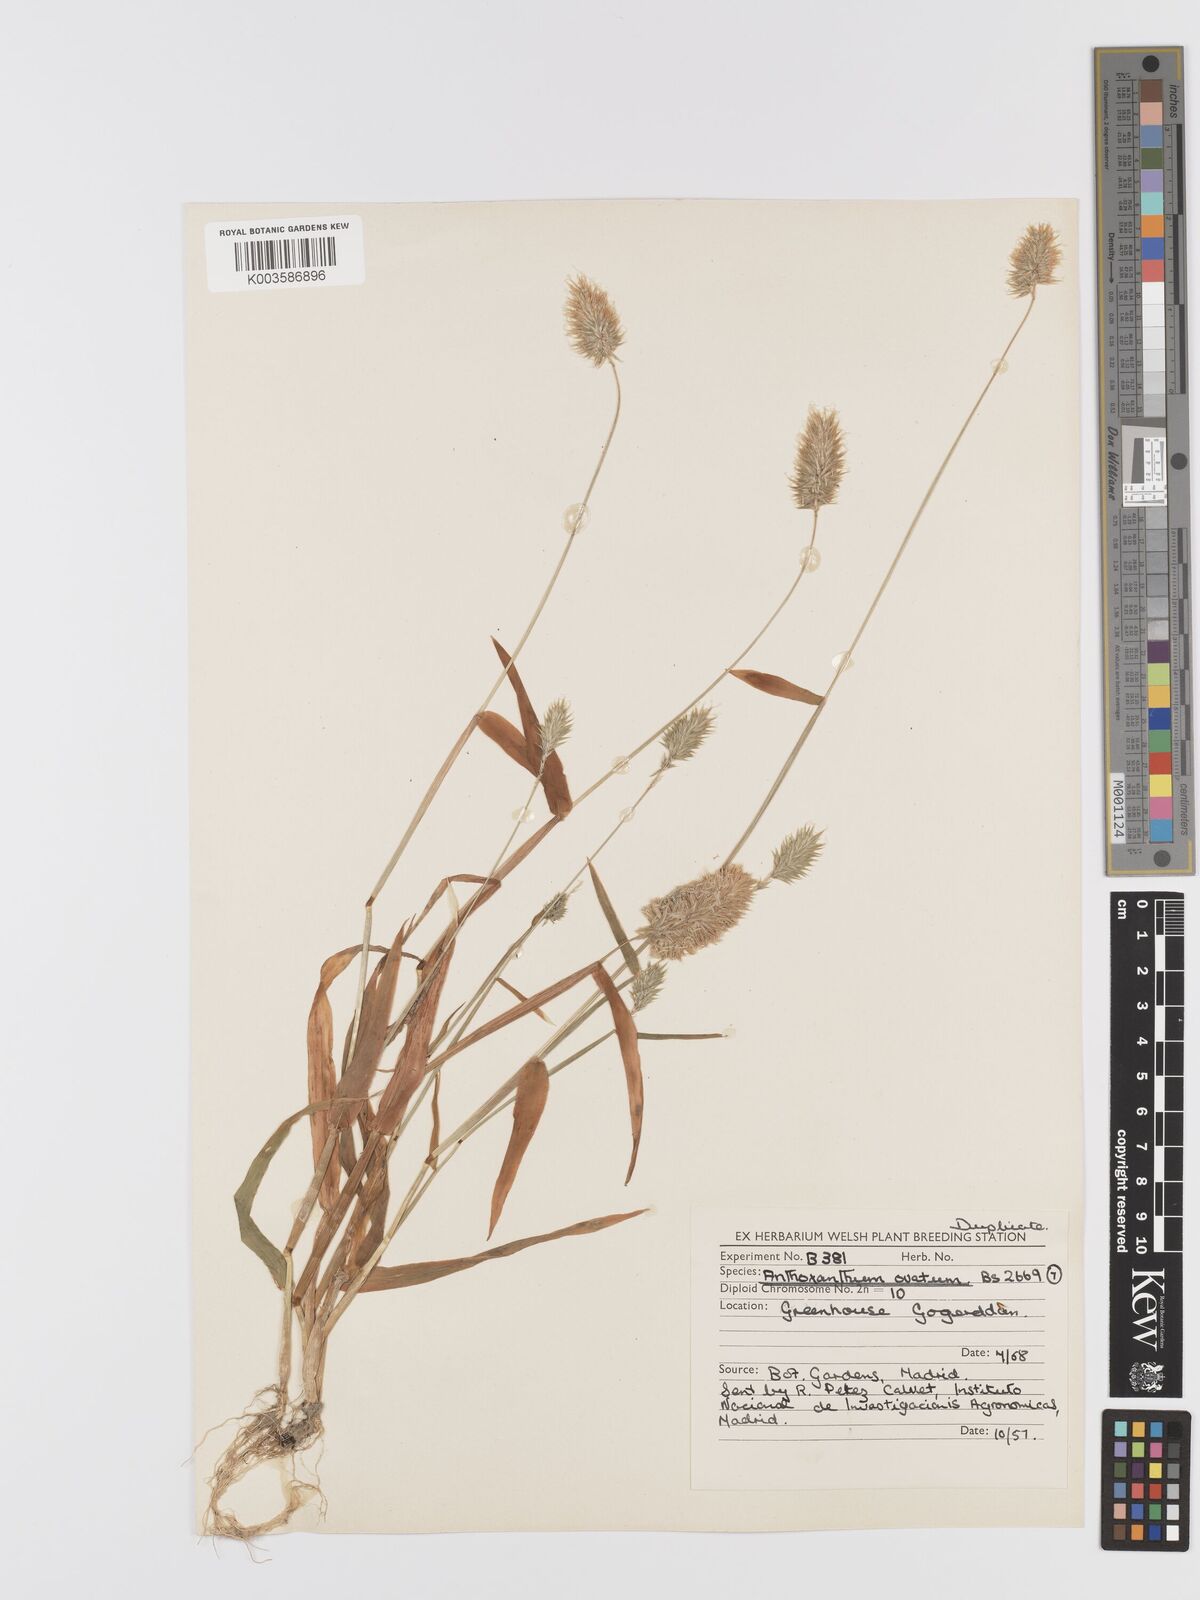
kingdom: Plantae
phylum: Tracheophyta
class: Liliopsida
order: Poales
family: Poaceae
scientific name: Poaceae
